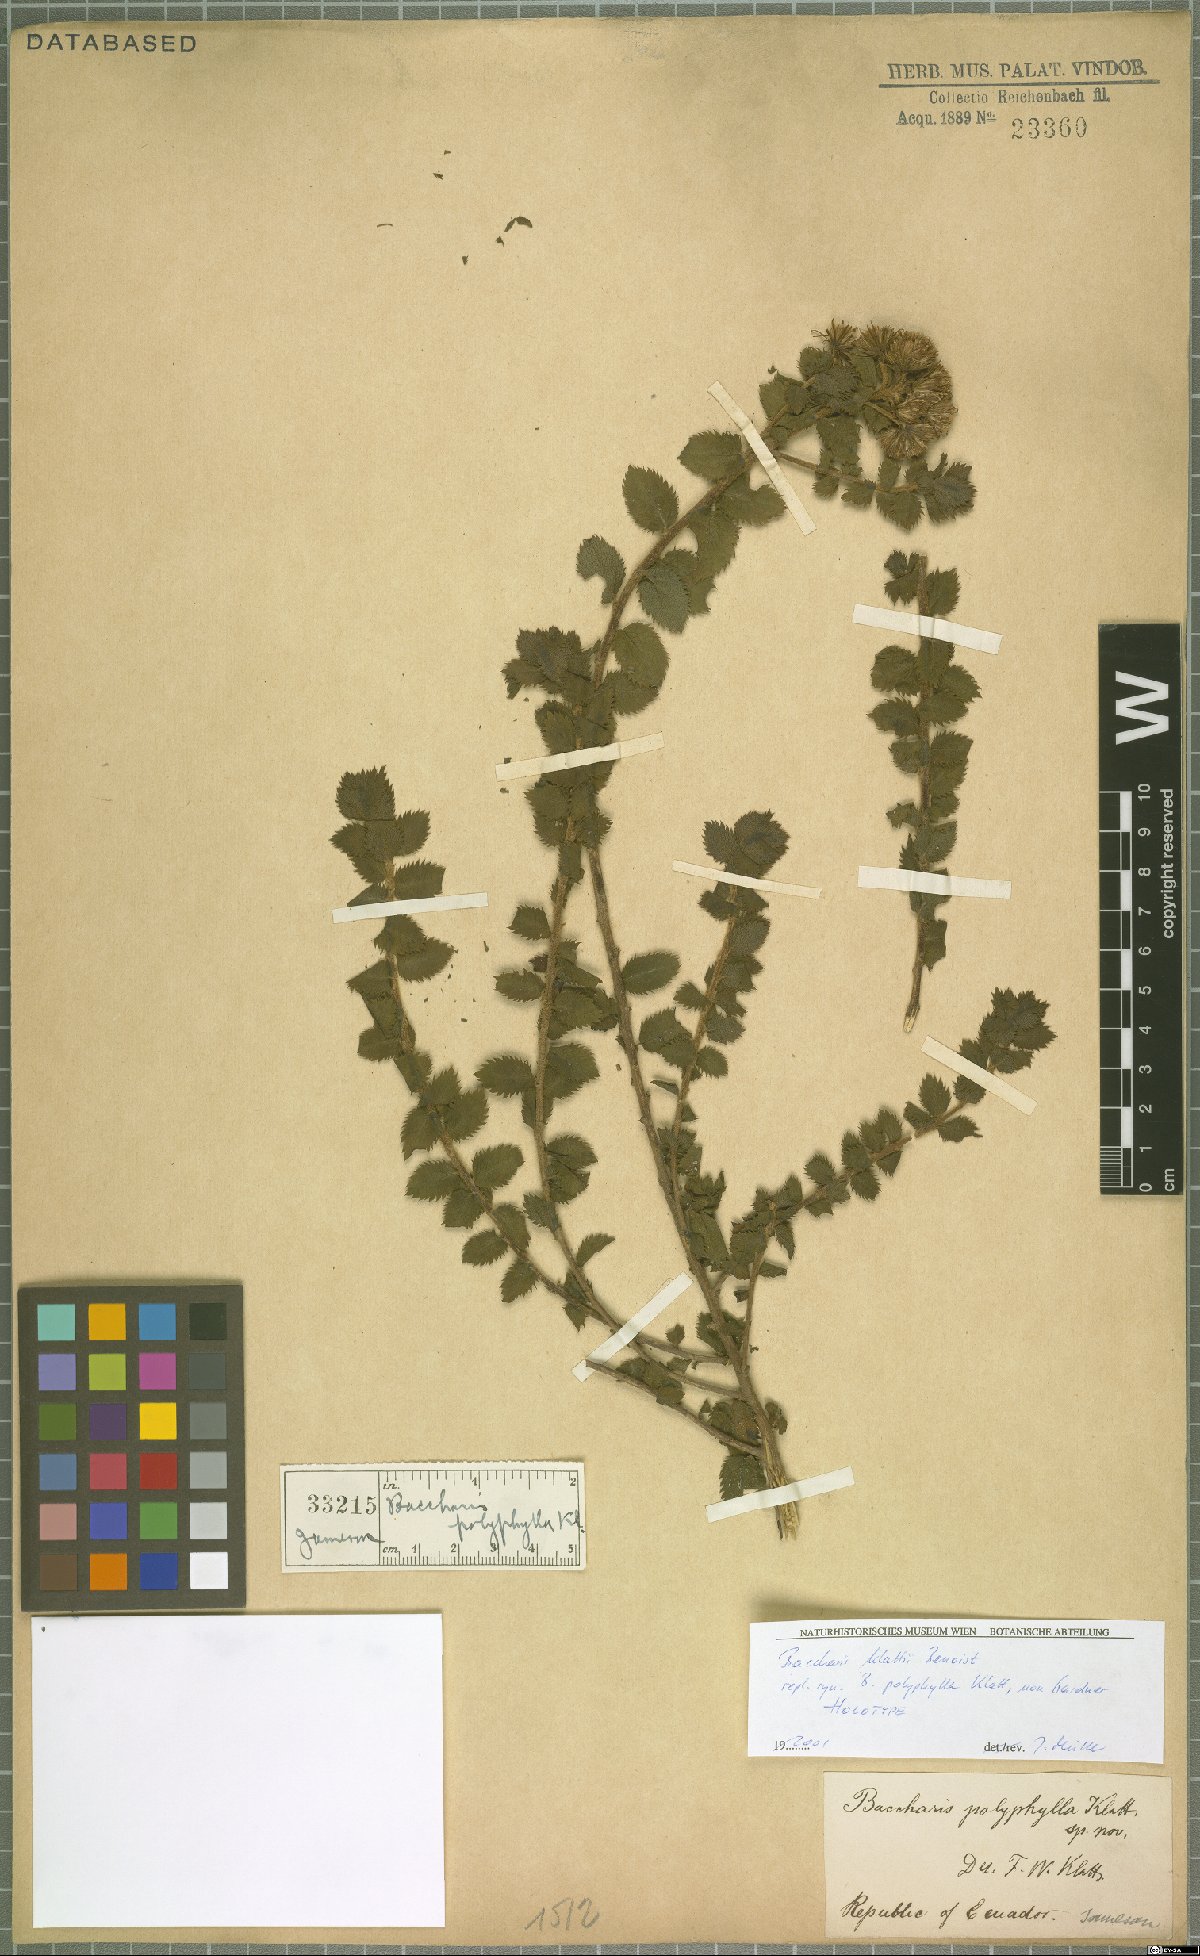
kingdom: Plantae
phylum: Tracheophyta
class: Magnoliopsida
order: Asterales
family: Asteraceae
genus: Baccharis
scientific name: Baccharis klattii
